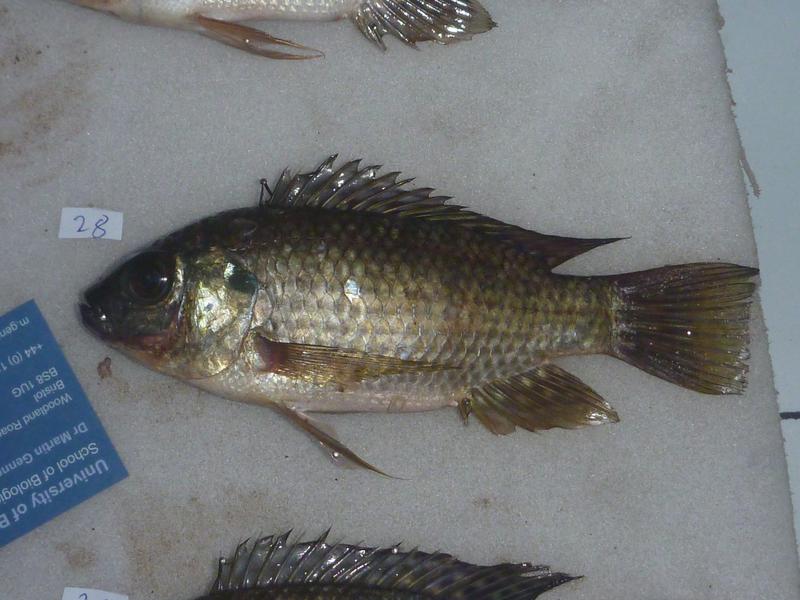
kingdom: Animalia
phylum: Chordata
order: Perciformes
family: Cichlidae
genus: Oreochromis
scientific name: Oreochromis leucostictus
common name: Blue spotted tilapia
